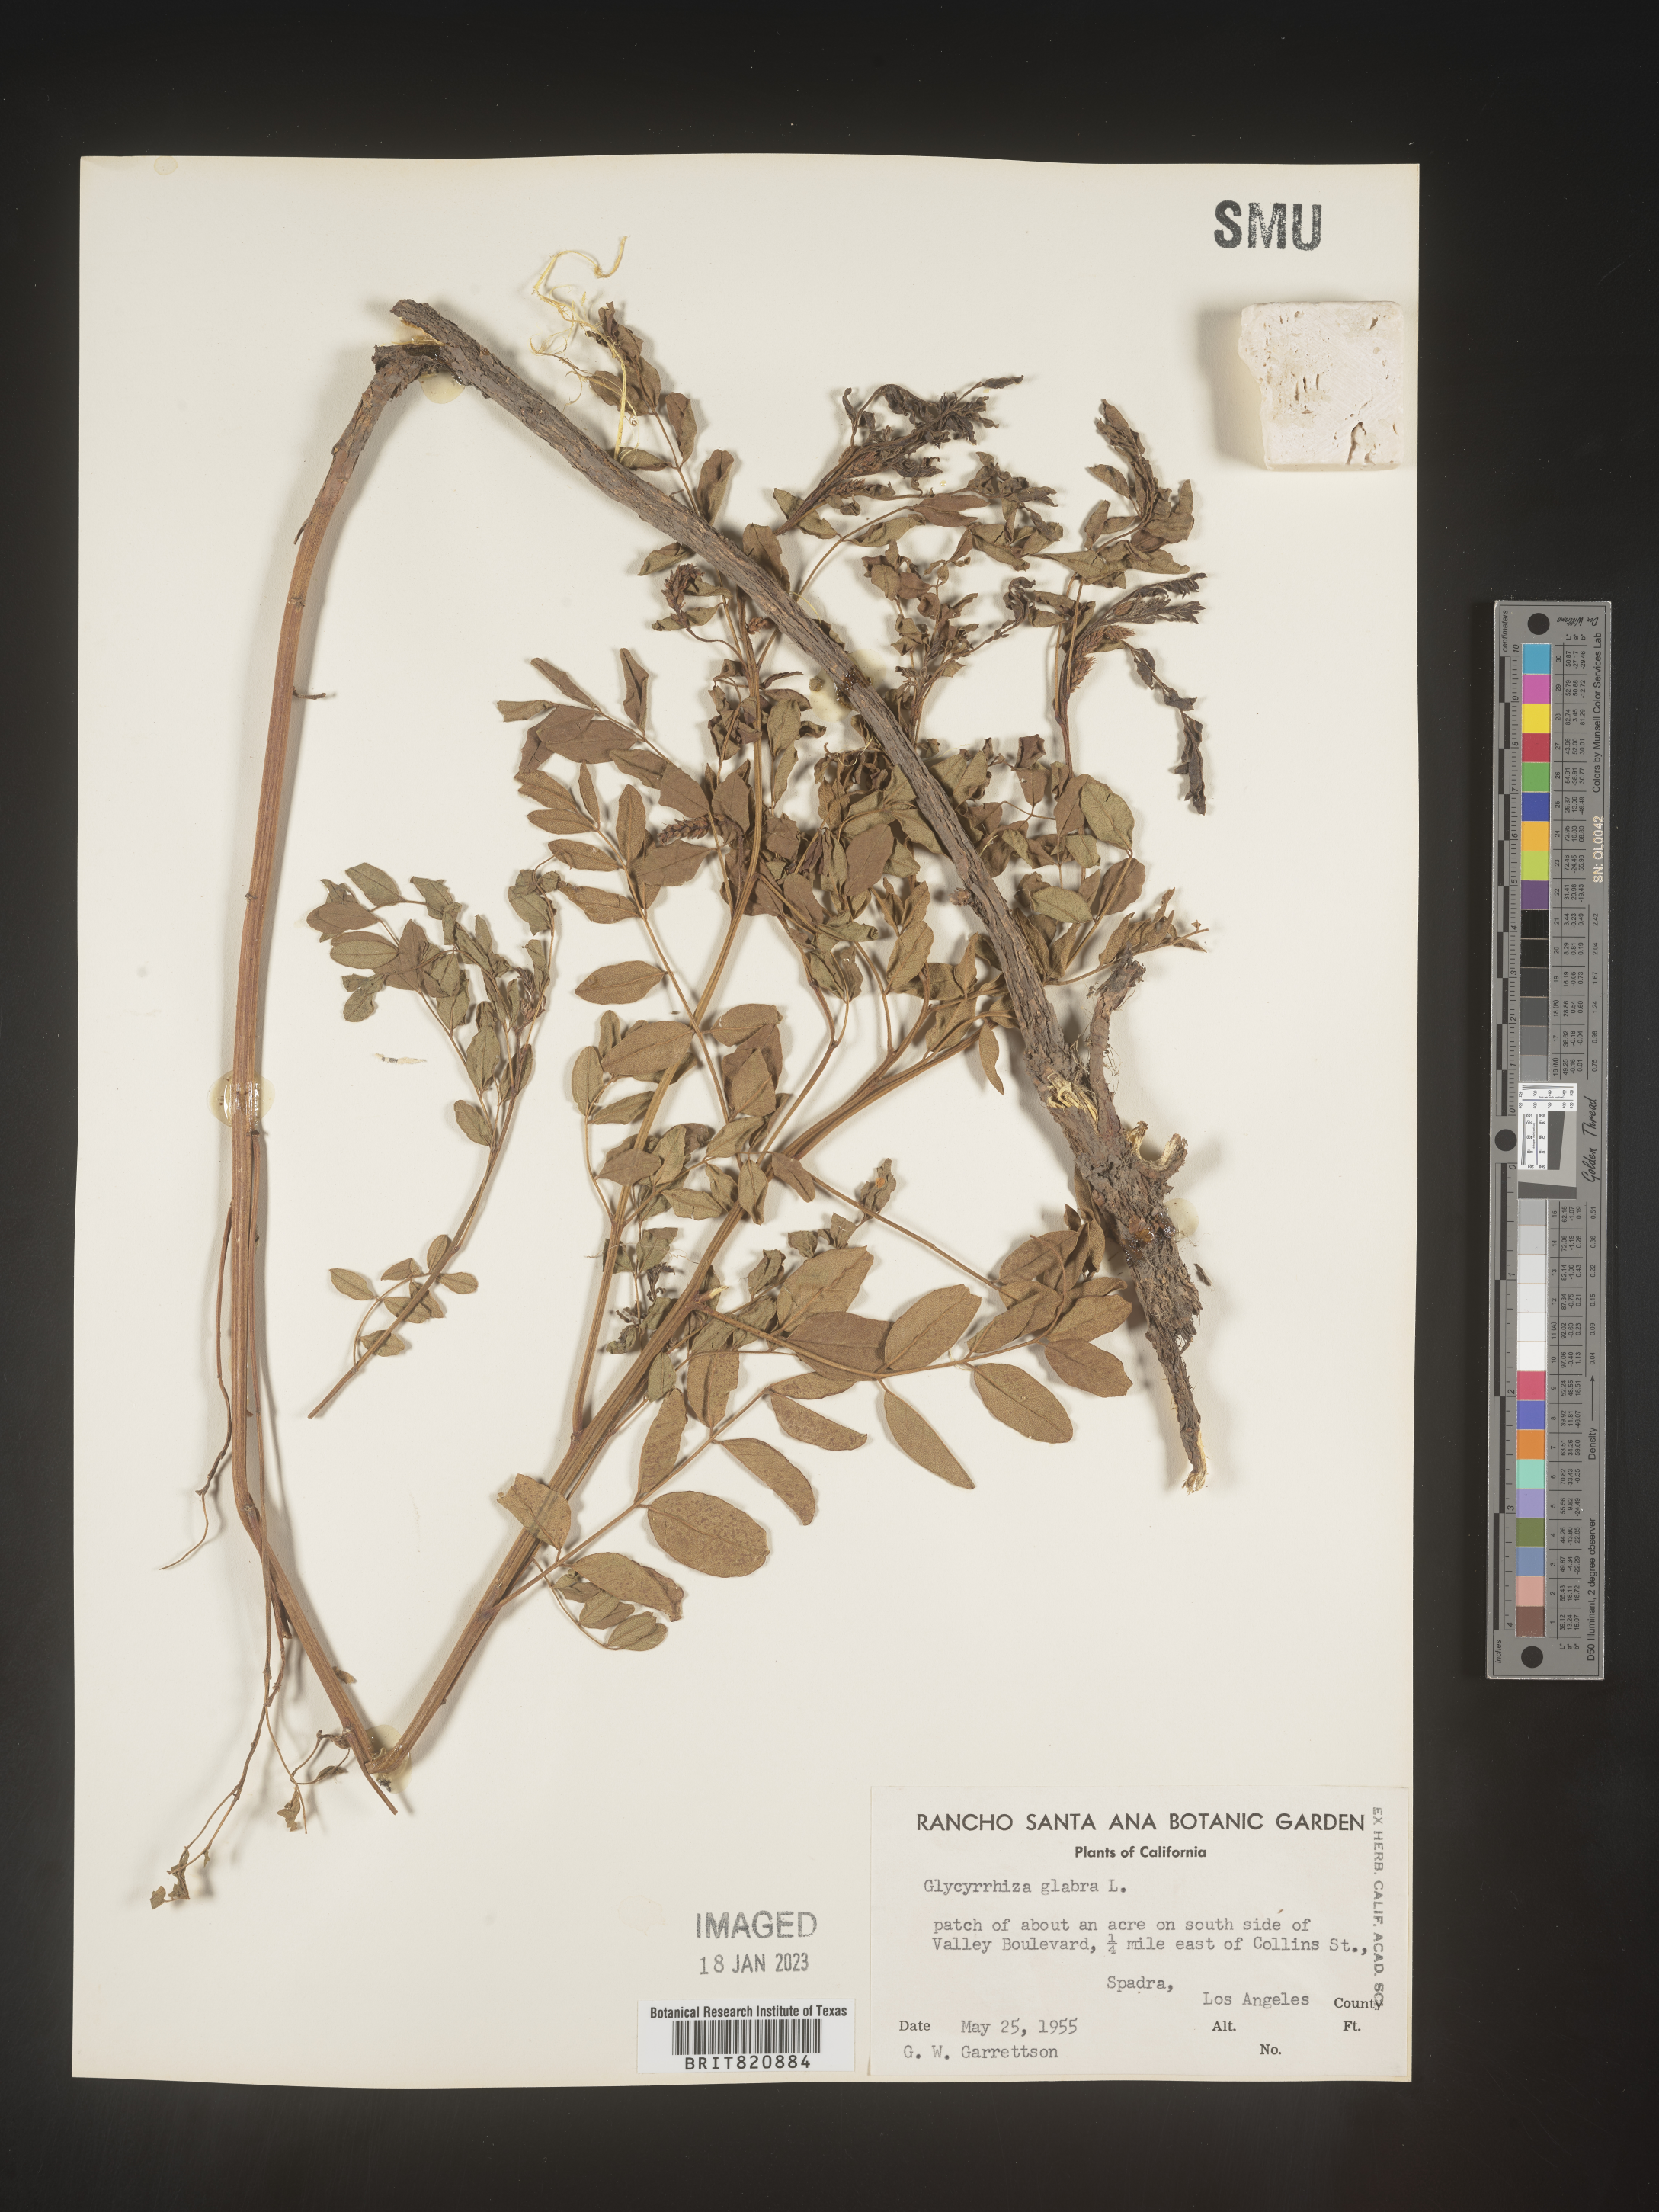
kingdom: Plantae
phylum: Tracheophyta
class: Magnoliopsida
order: Fabales
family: Fabaceae
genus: Glycyrrhiza
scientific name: Glycyrrhiza lepidota
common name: American liquorice
